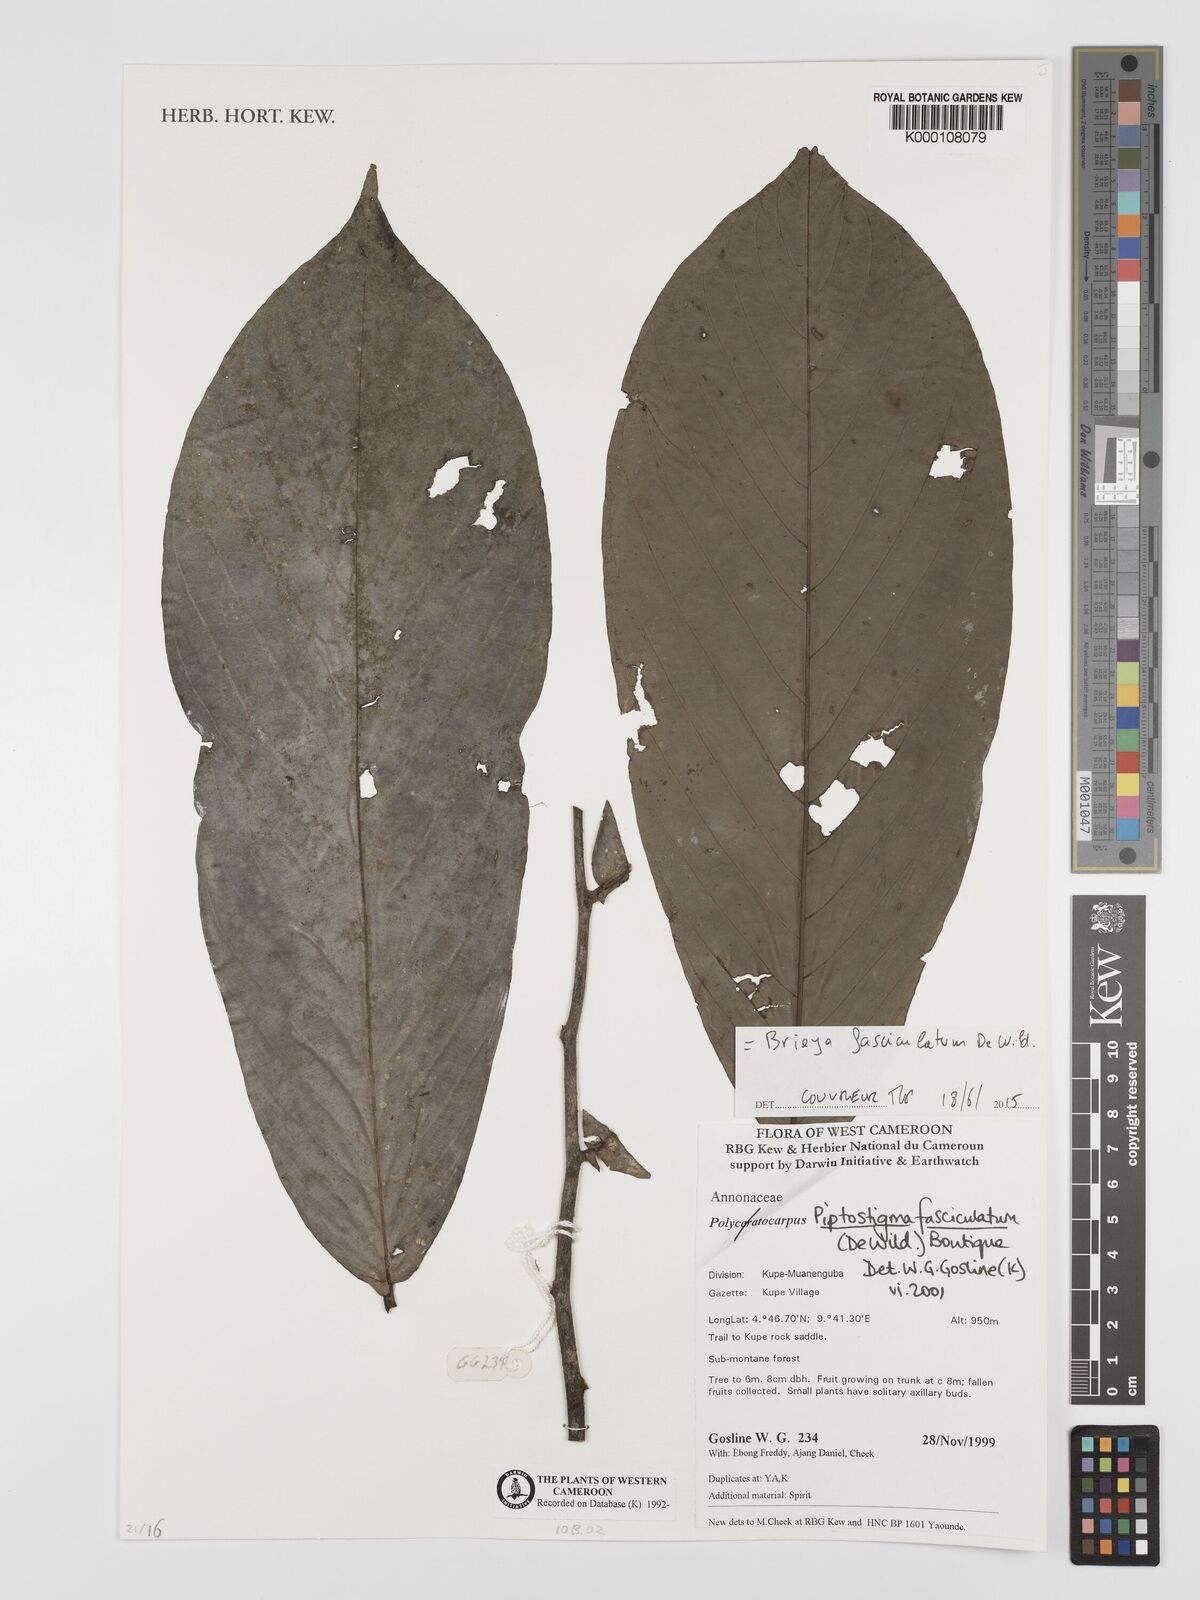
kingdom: Plantae
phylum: Tracheophyta
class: Magnoliopsida
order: Magnoliales
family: Annonaceae
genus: Piptostigma
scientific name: Piptostigma fasciculatum
